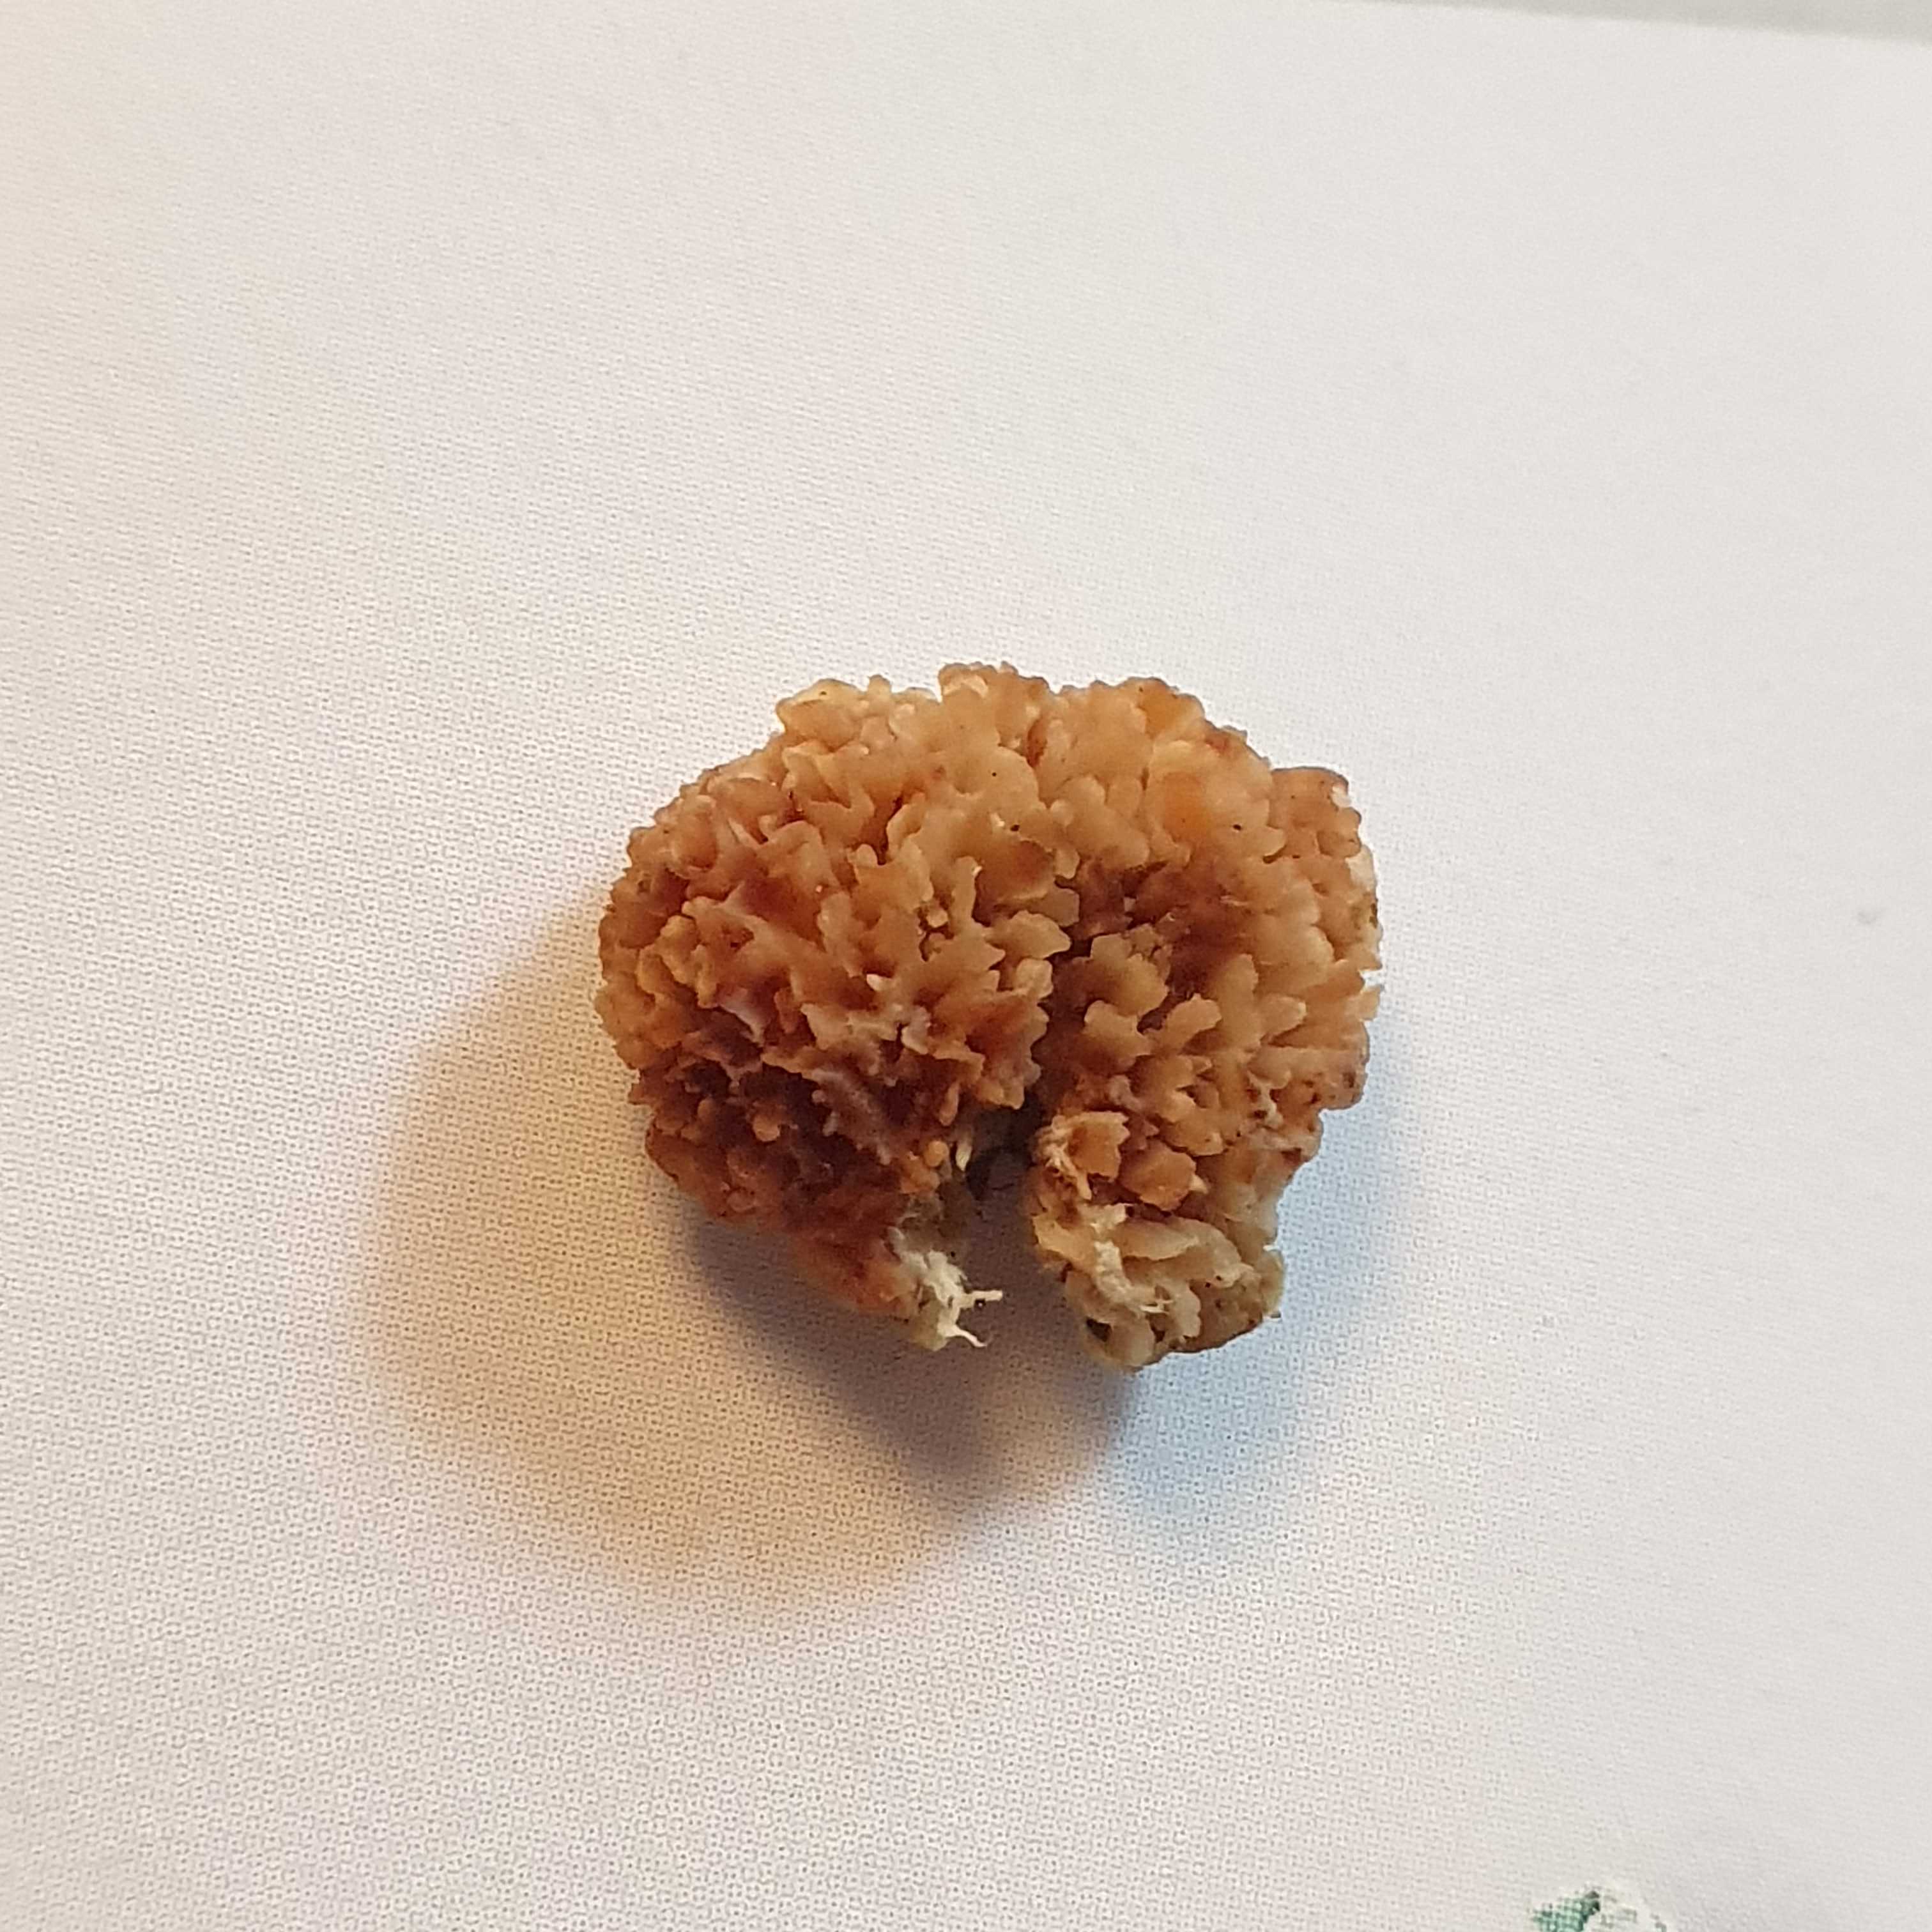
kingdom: Fungi
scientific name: Fungi
